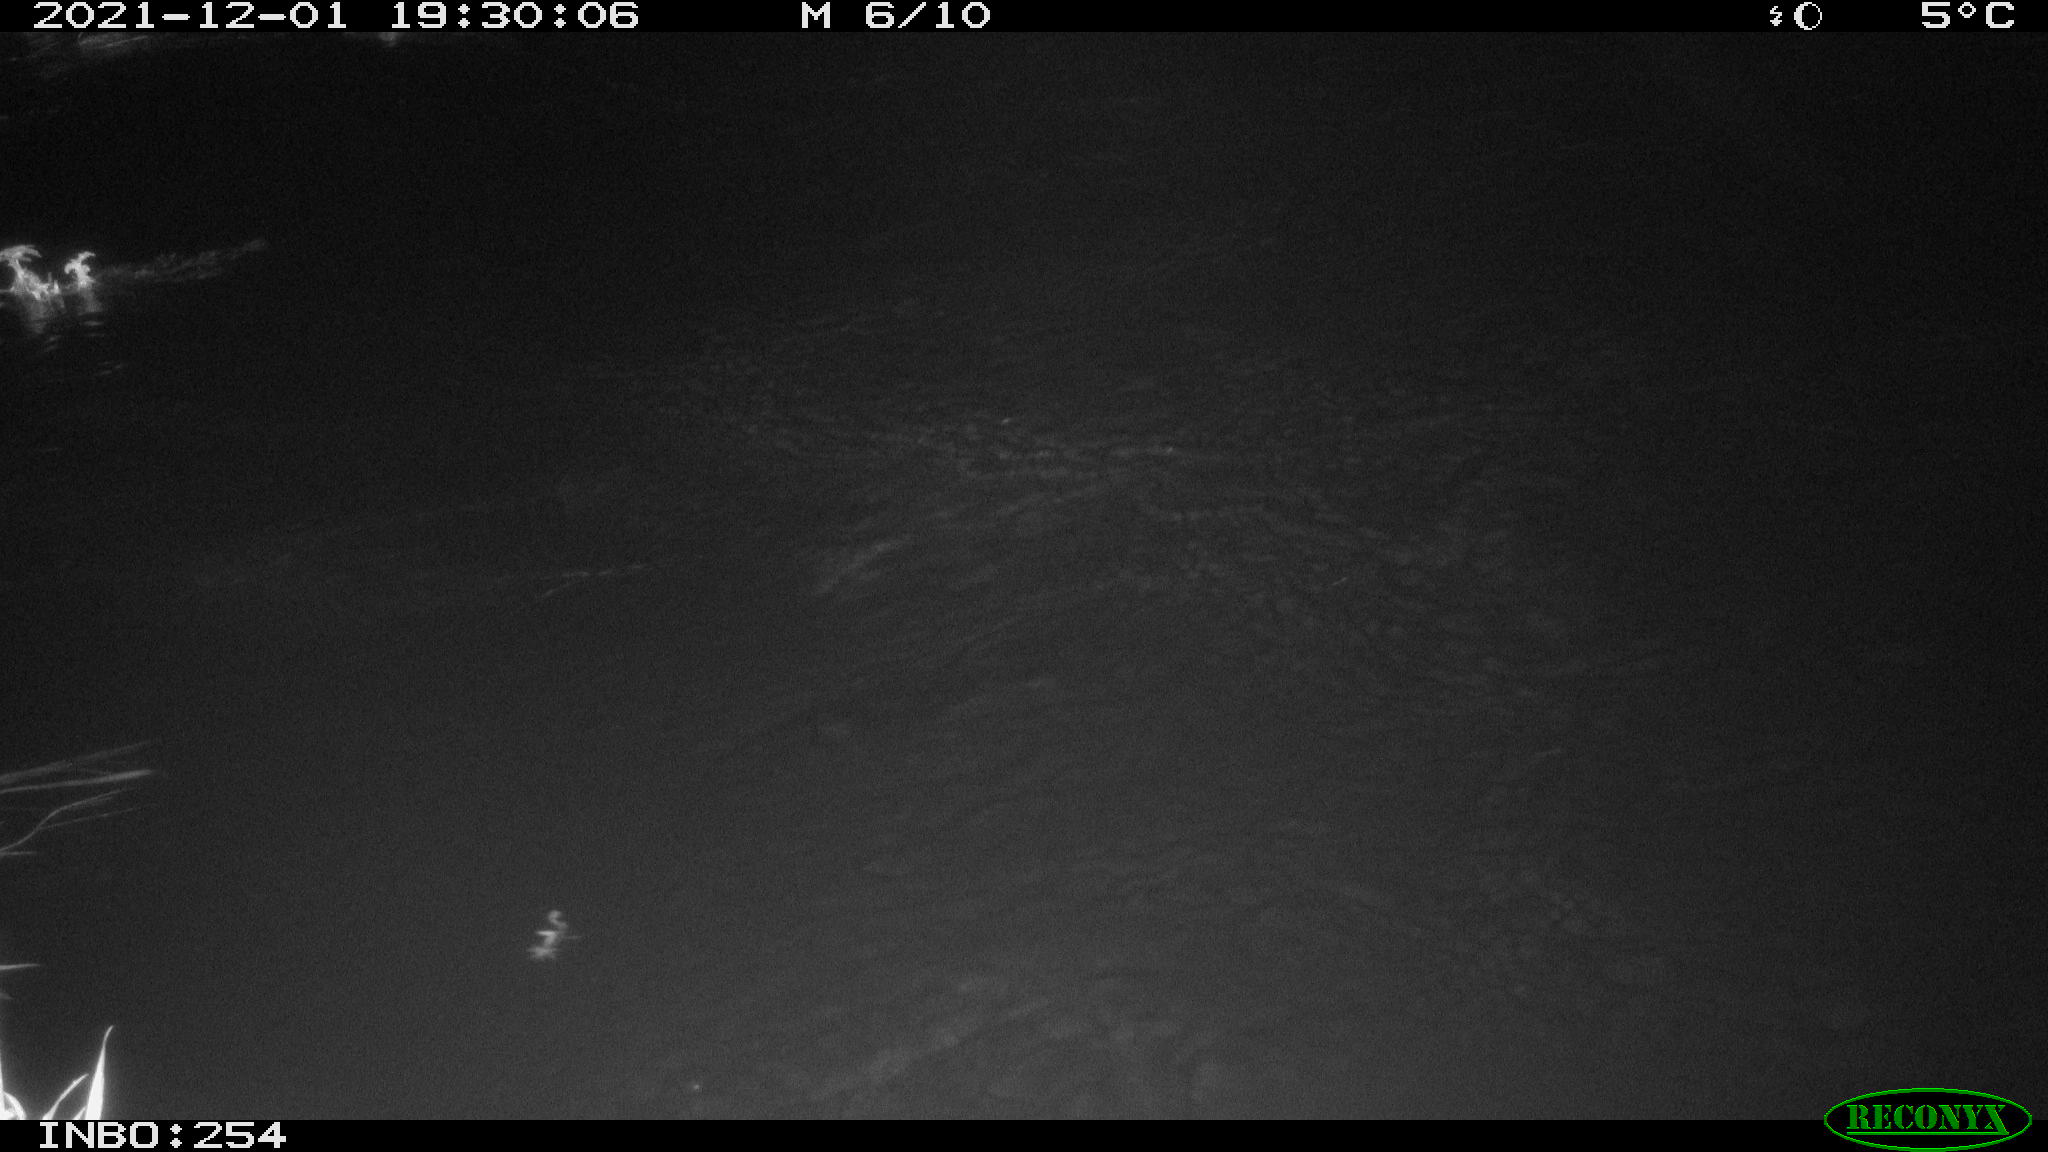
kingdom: Animalia
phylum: Chordata
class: Mammalia
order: Rodentia
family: Cricetidae
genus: Ondatra
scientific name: Ondatra zibethicus
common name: Muskrat
